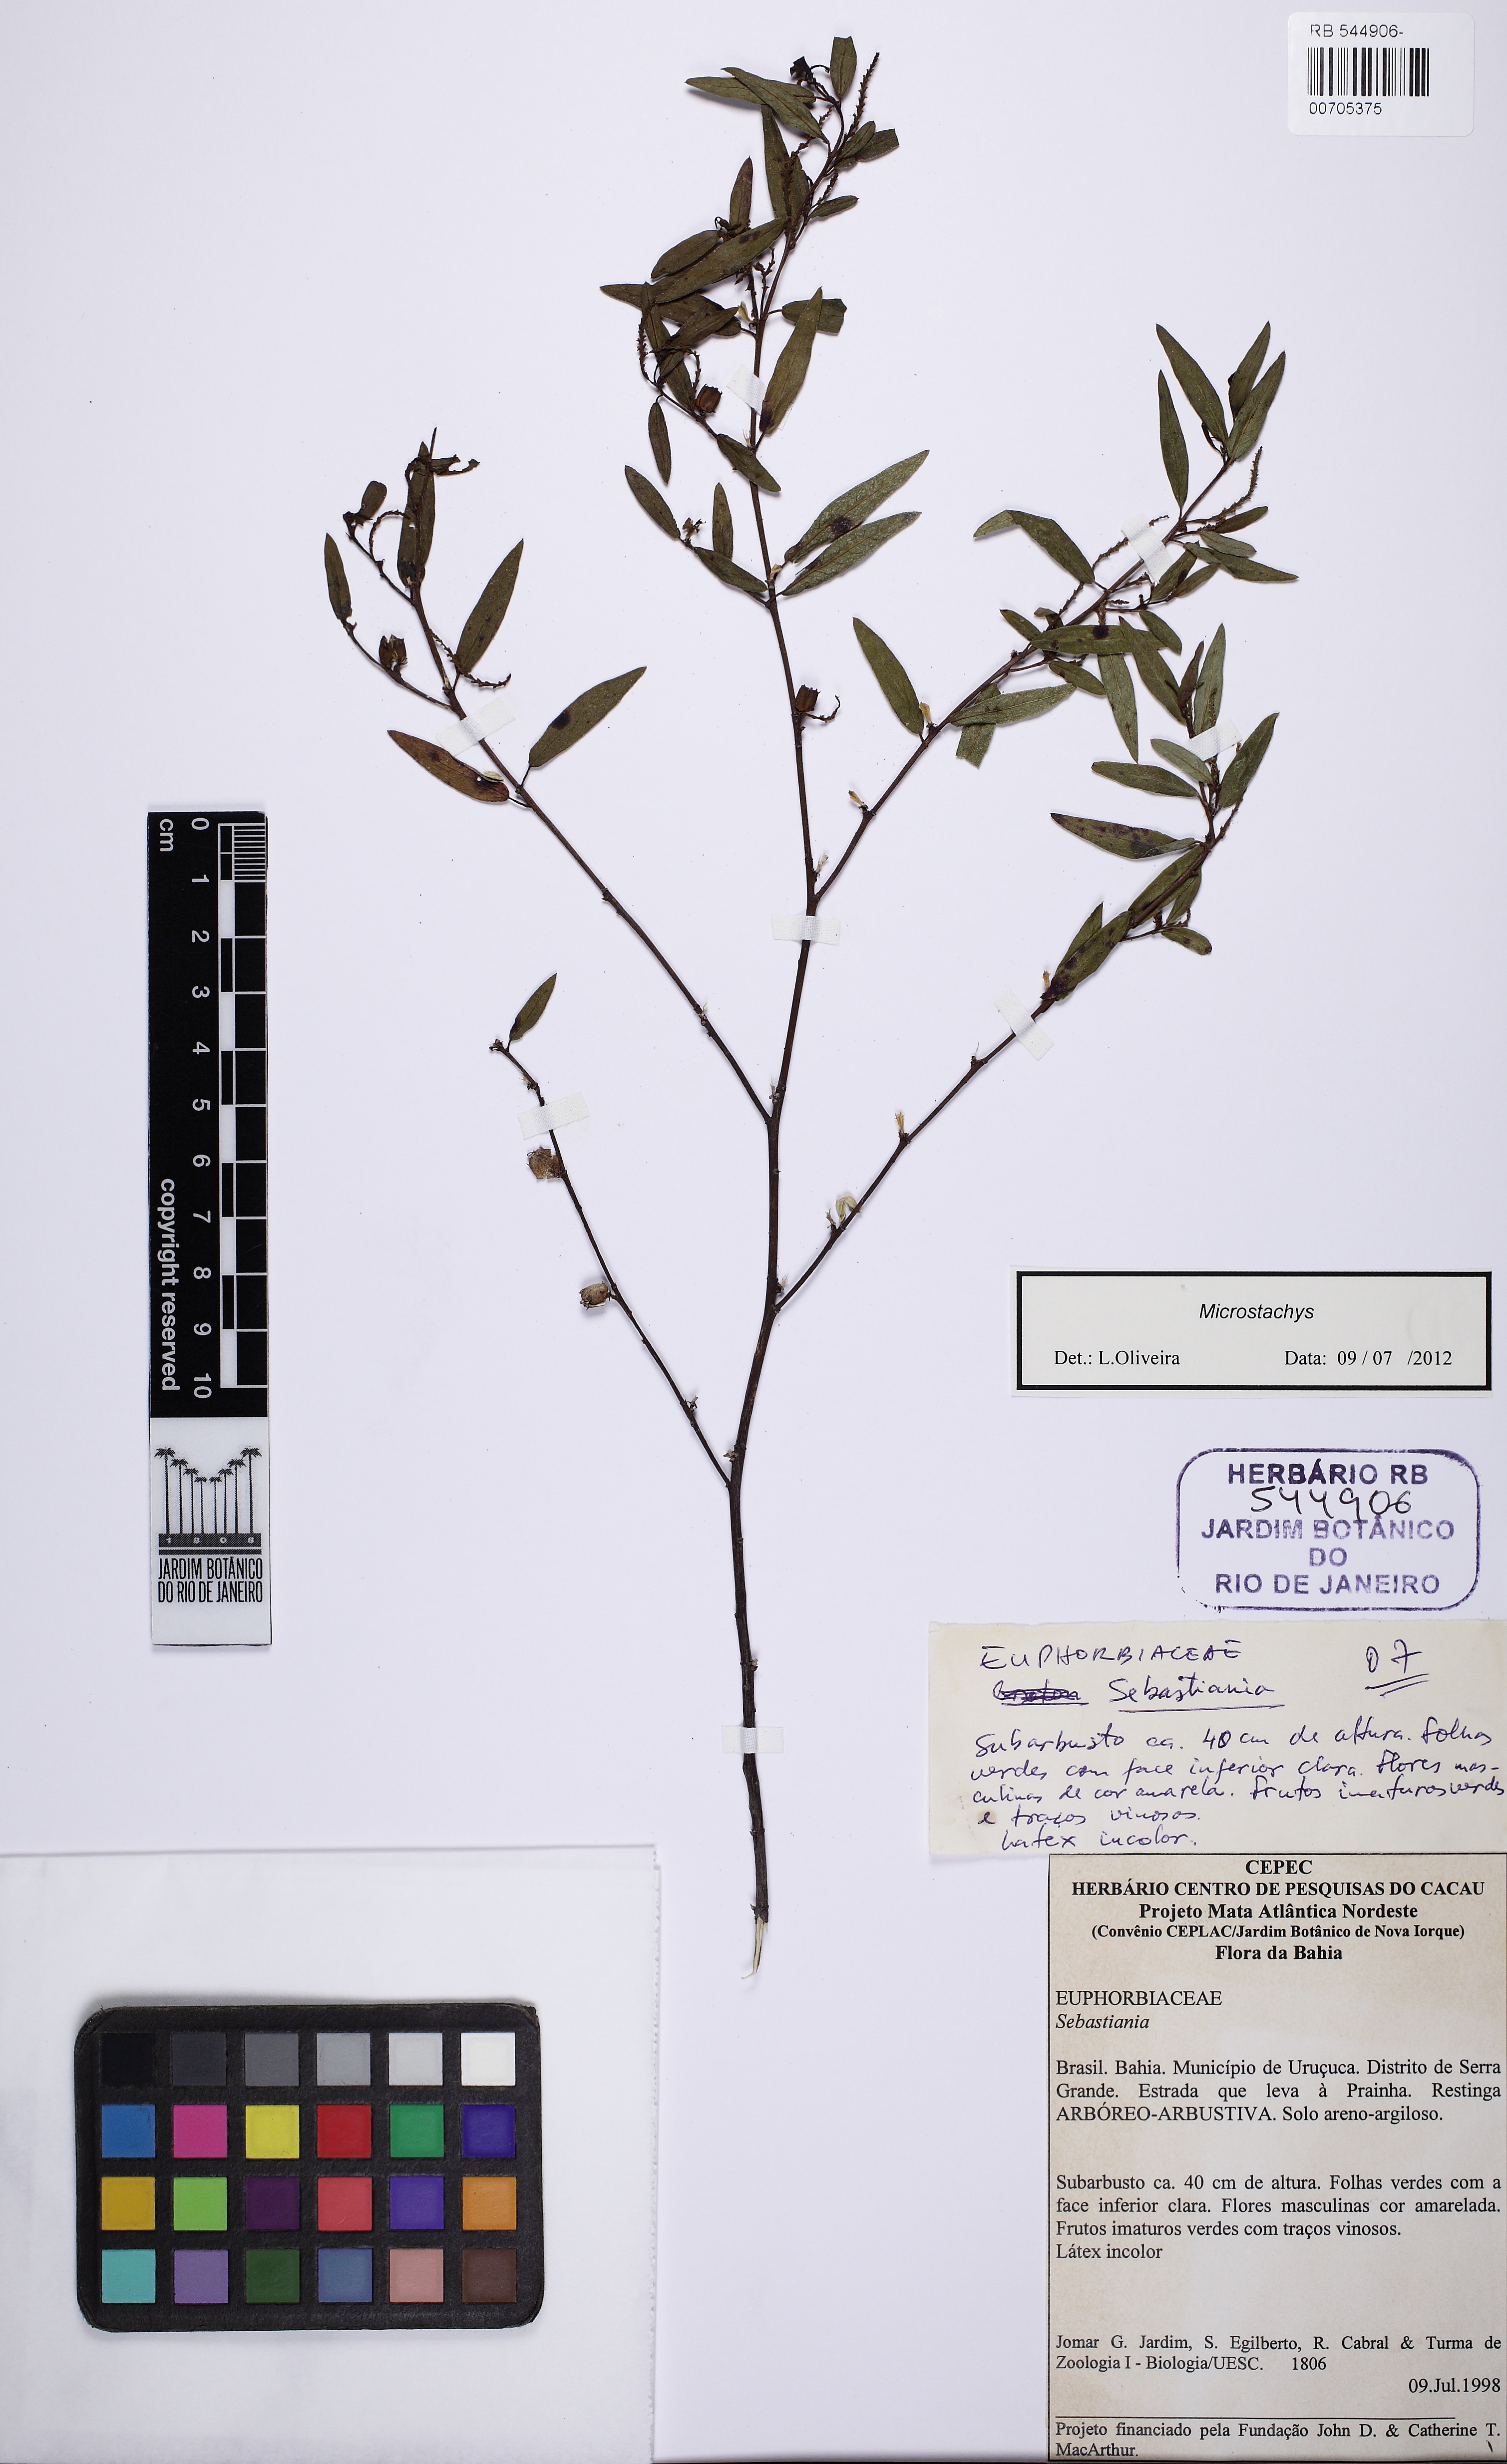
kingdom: Plantae
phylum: Tracheophyta
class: Magnoliopsida
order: Malpighiales
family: Euphorbiaceae
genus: Microstachys
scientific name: Microstachys salicifolia
